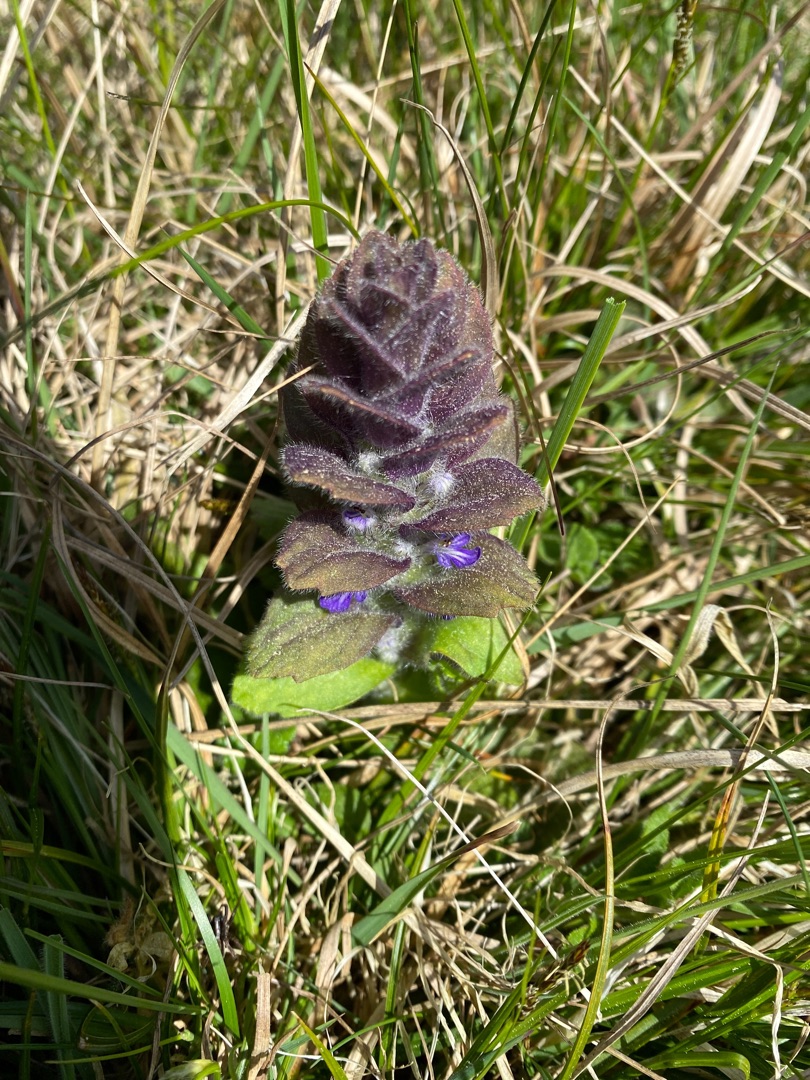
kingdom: Plantae
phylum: Tracheophyta
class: Magnoliopsida
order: Lamiales
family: Lamiaceae
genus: Ajuga
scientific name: Ajuga pyramidalis
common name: Pyramide-læbeløs
